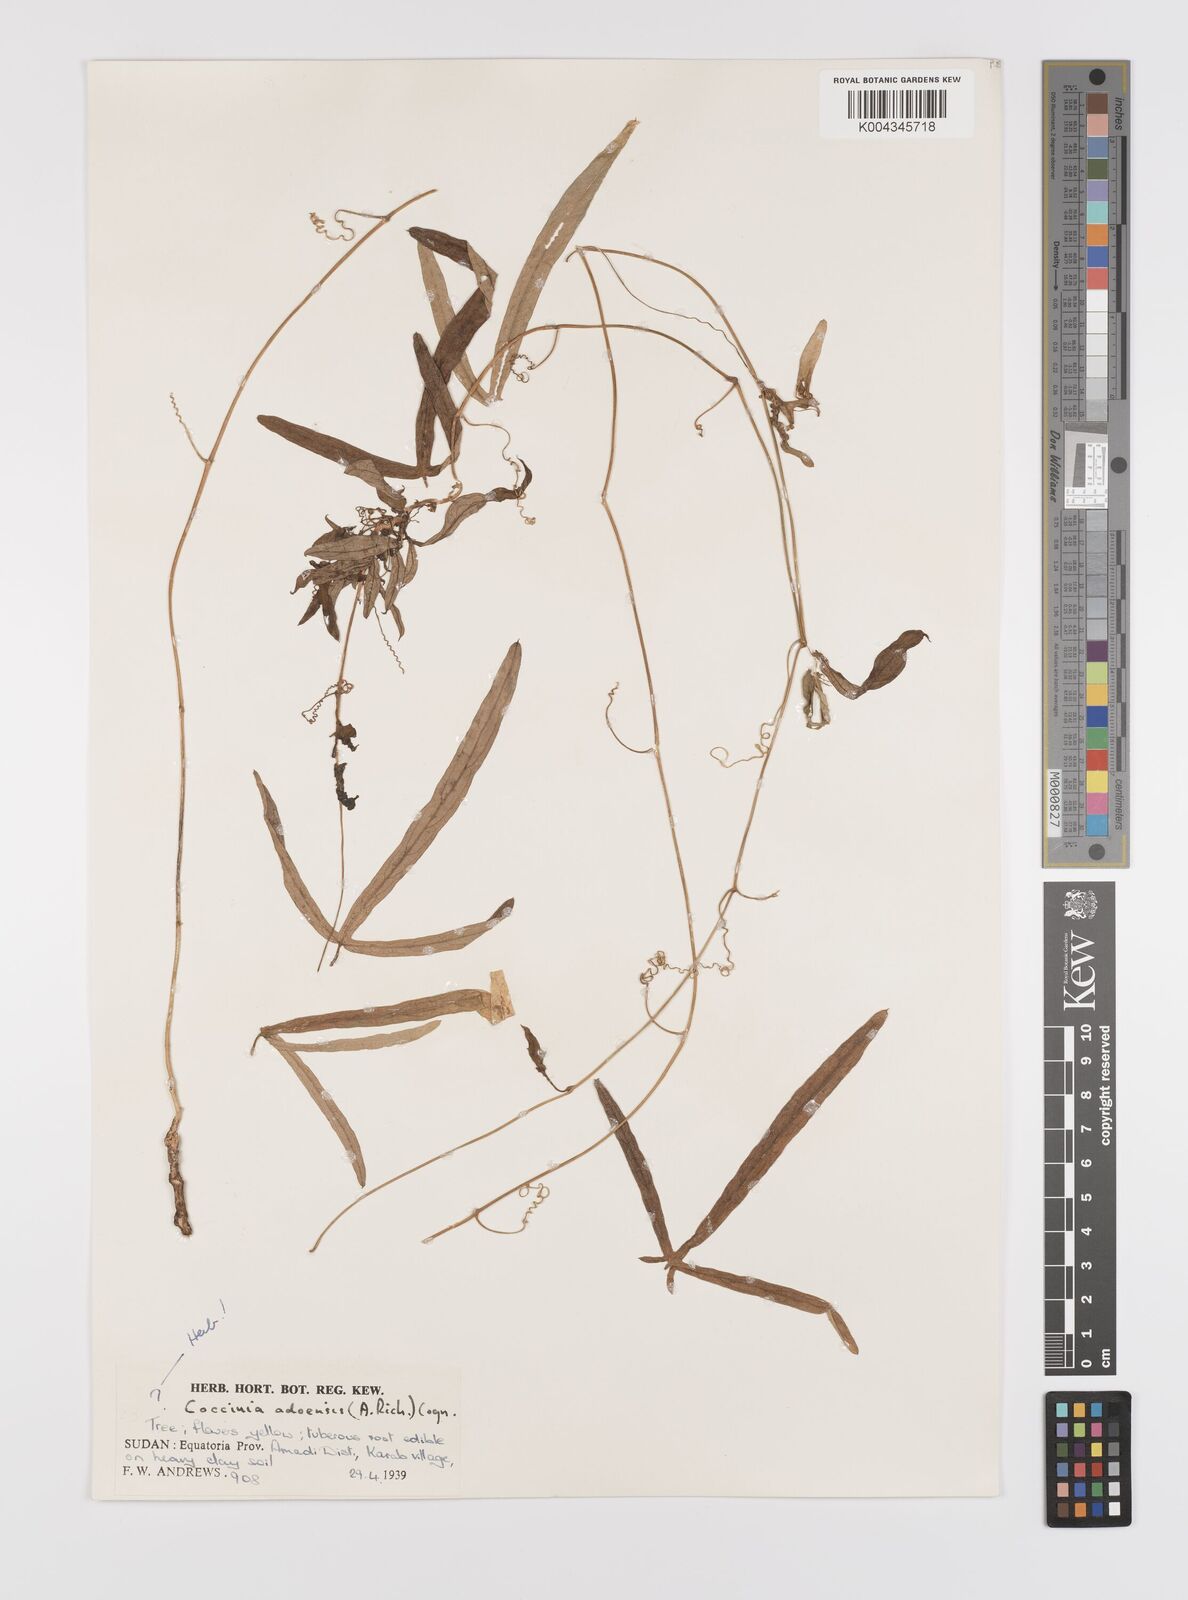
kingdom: Plantae
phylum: Tracheophyta
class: Magnoliopsida
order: Cucurbitales
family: Cucurbitaceae
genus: Coccinia
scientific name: Coccinia adoensis
